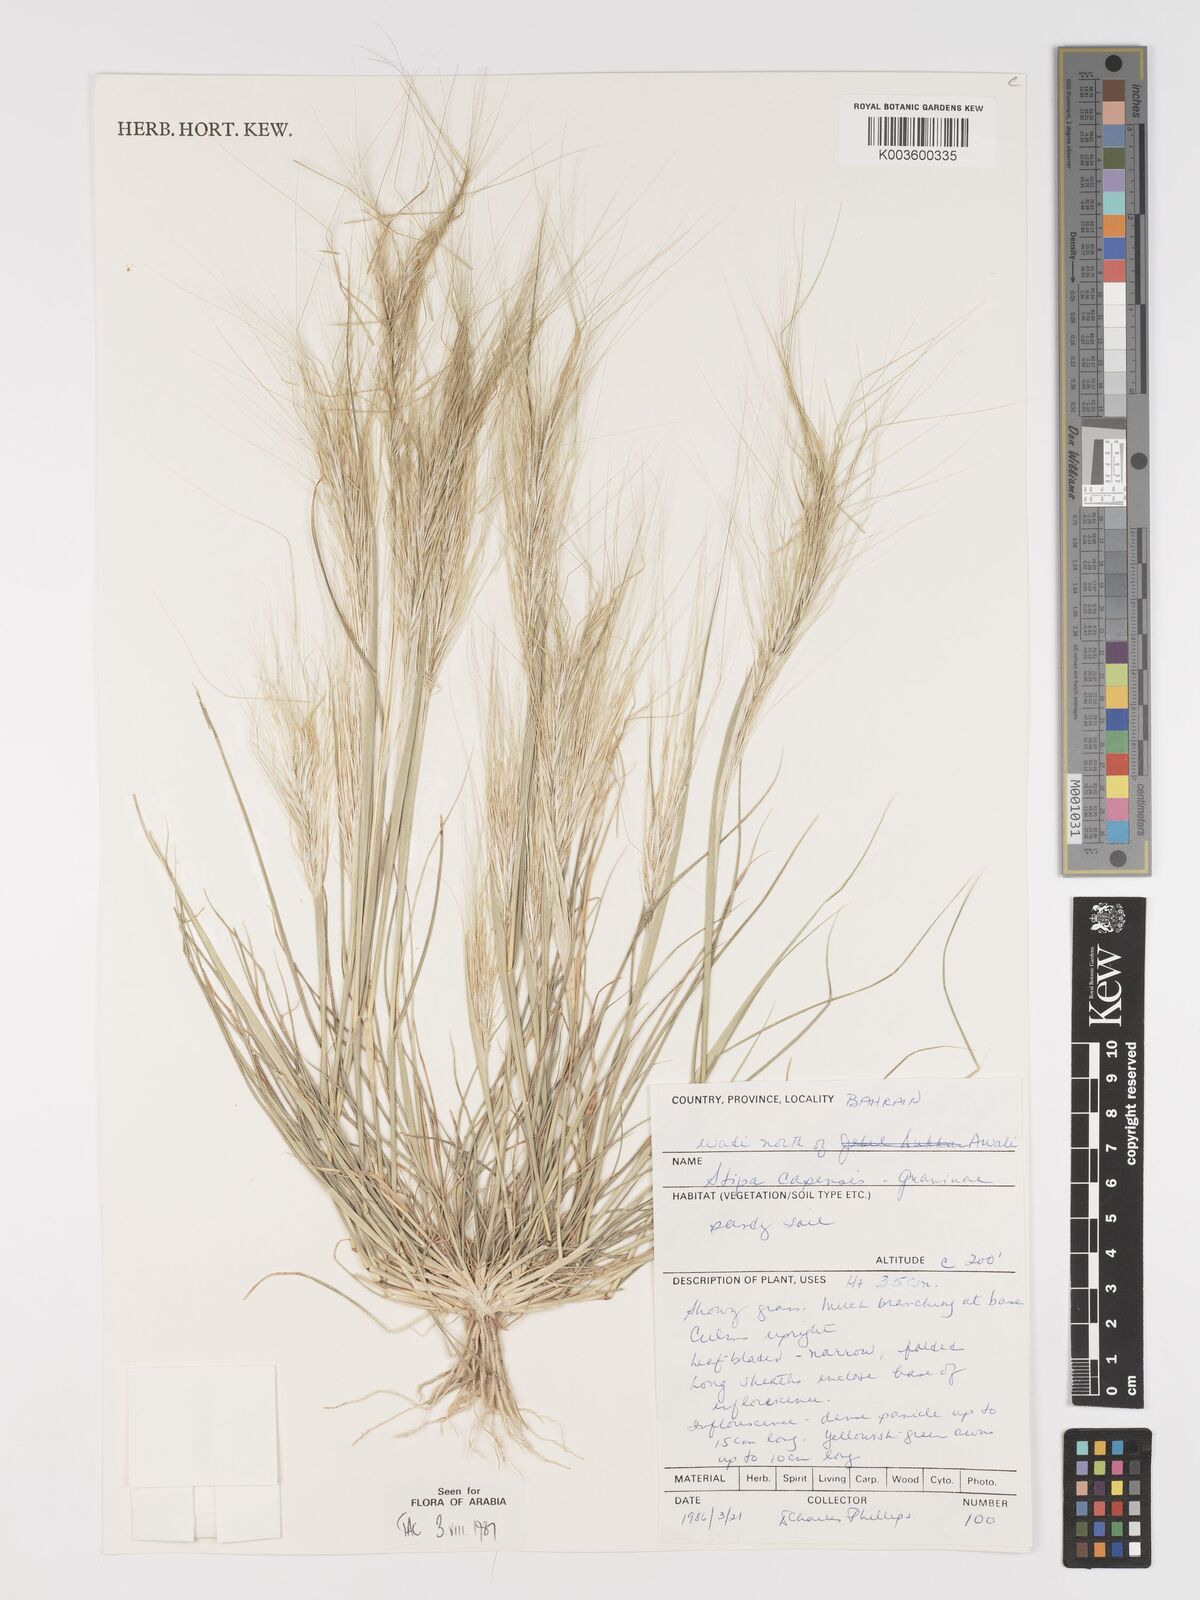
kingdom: Plantae
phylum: Tracheophyta
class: Liliopsida
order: Poales
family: Poaceae
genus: Stipellula
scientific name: Stipellula capensis
